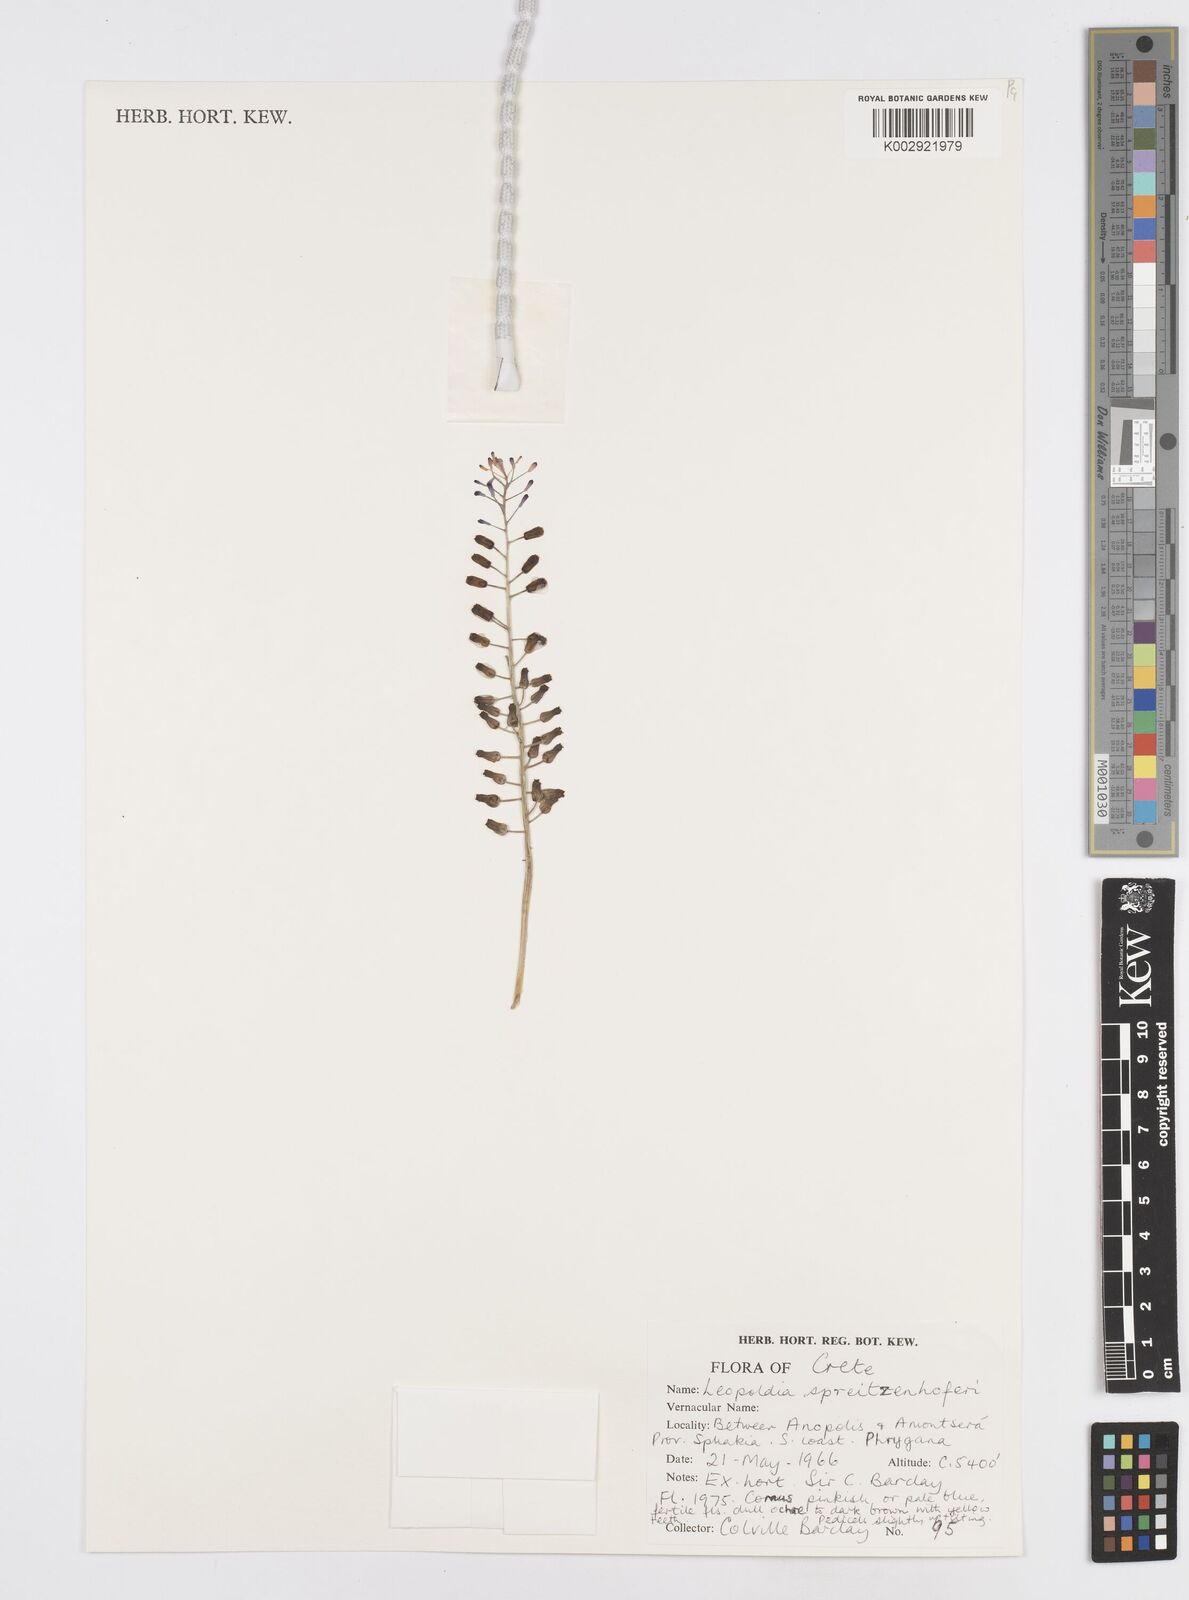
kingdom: Plantae
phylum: Tracheophyta
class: Liliopsida
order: Asparagales
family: Asparagaceae
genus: Muscari
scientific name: Muscari spreitzenhoferi
